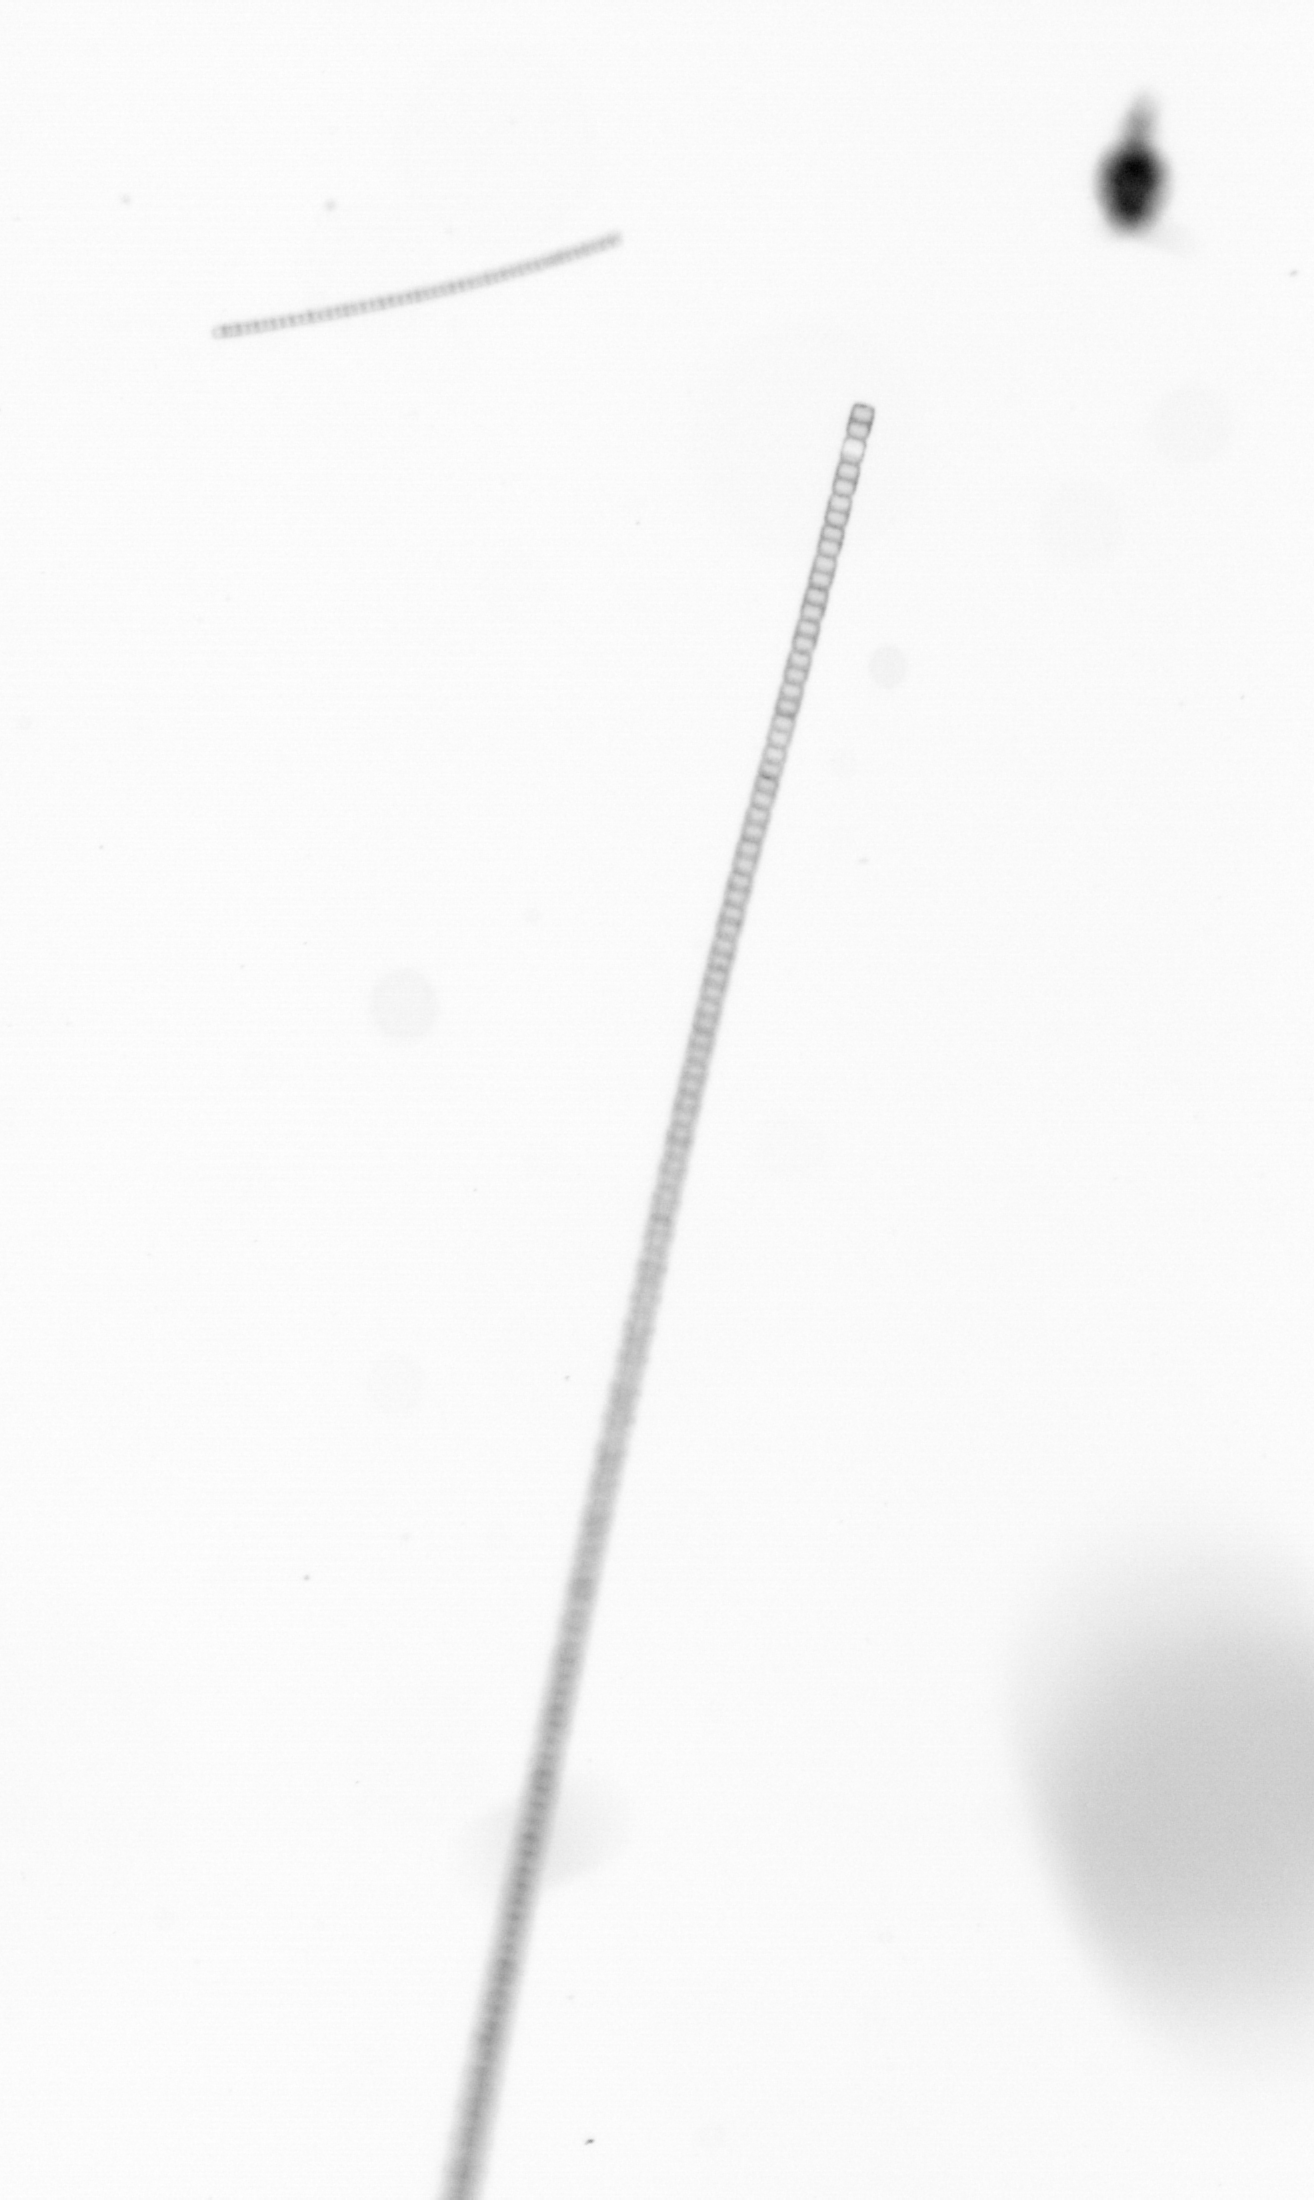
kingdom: Chromista
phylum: Ochrophyta
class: Bacillariophyceae
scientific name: Bacillariophyceae
